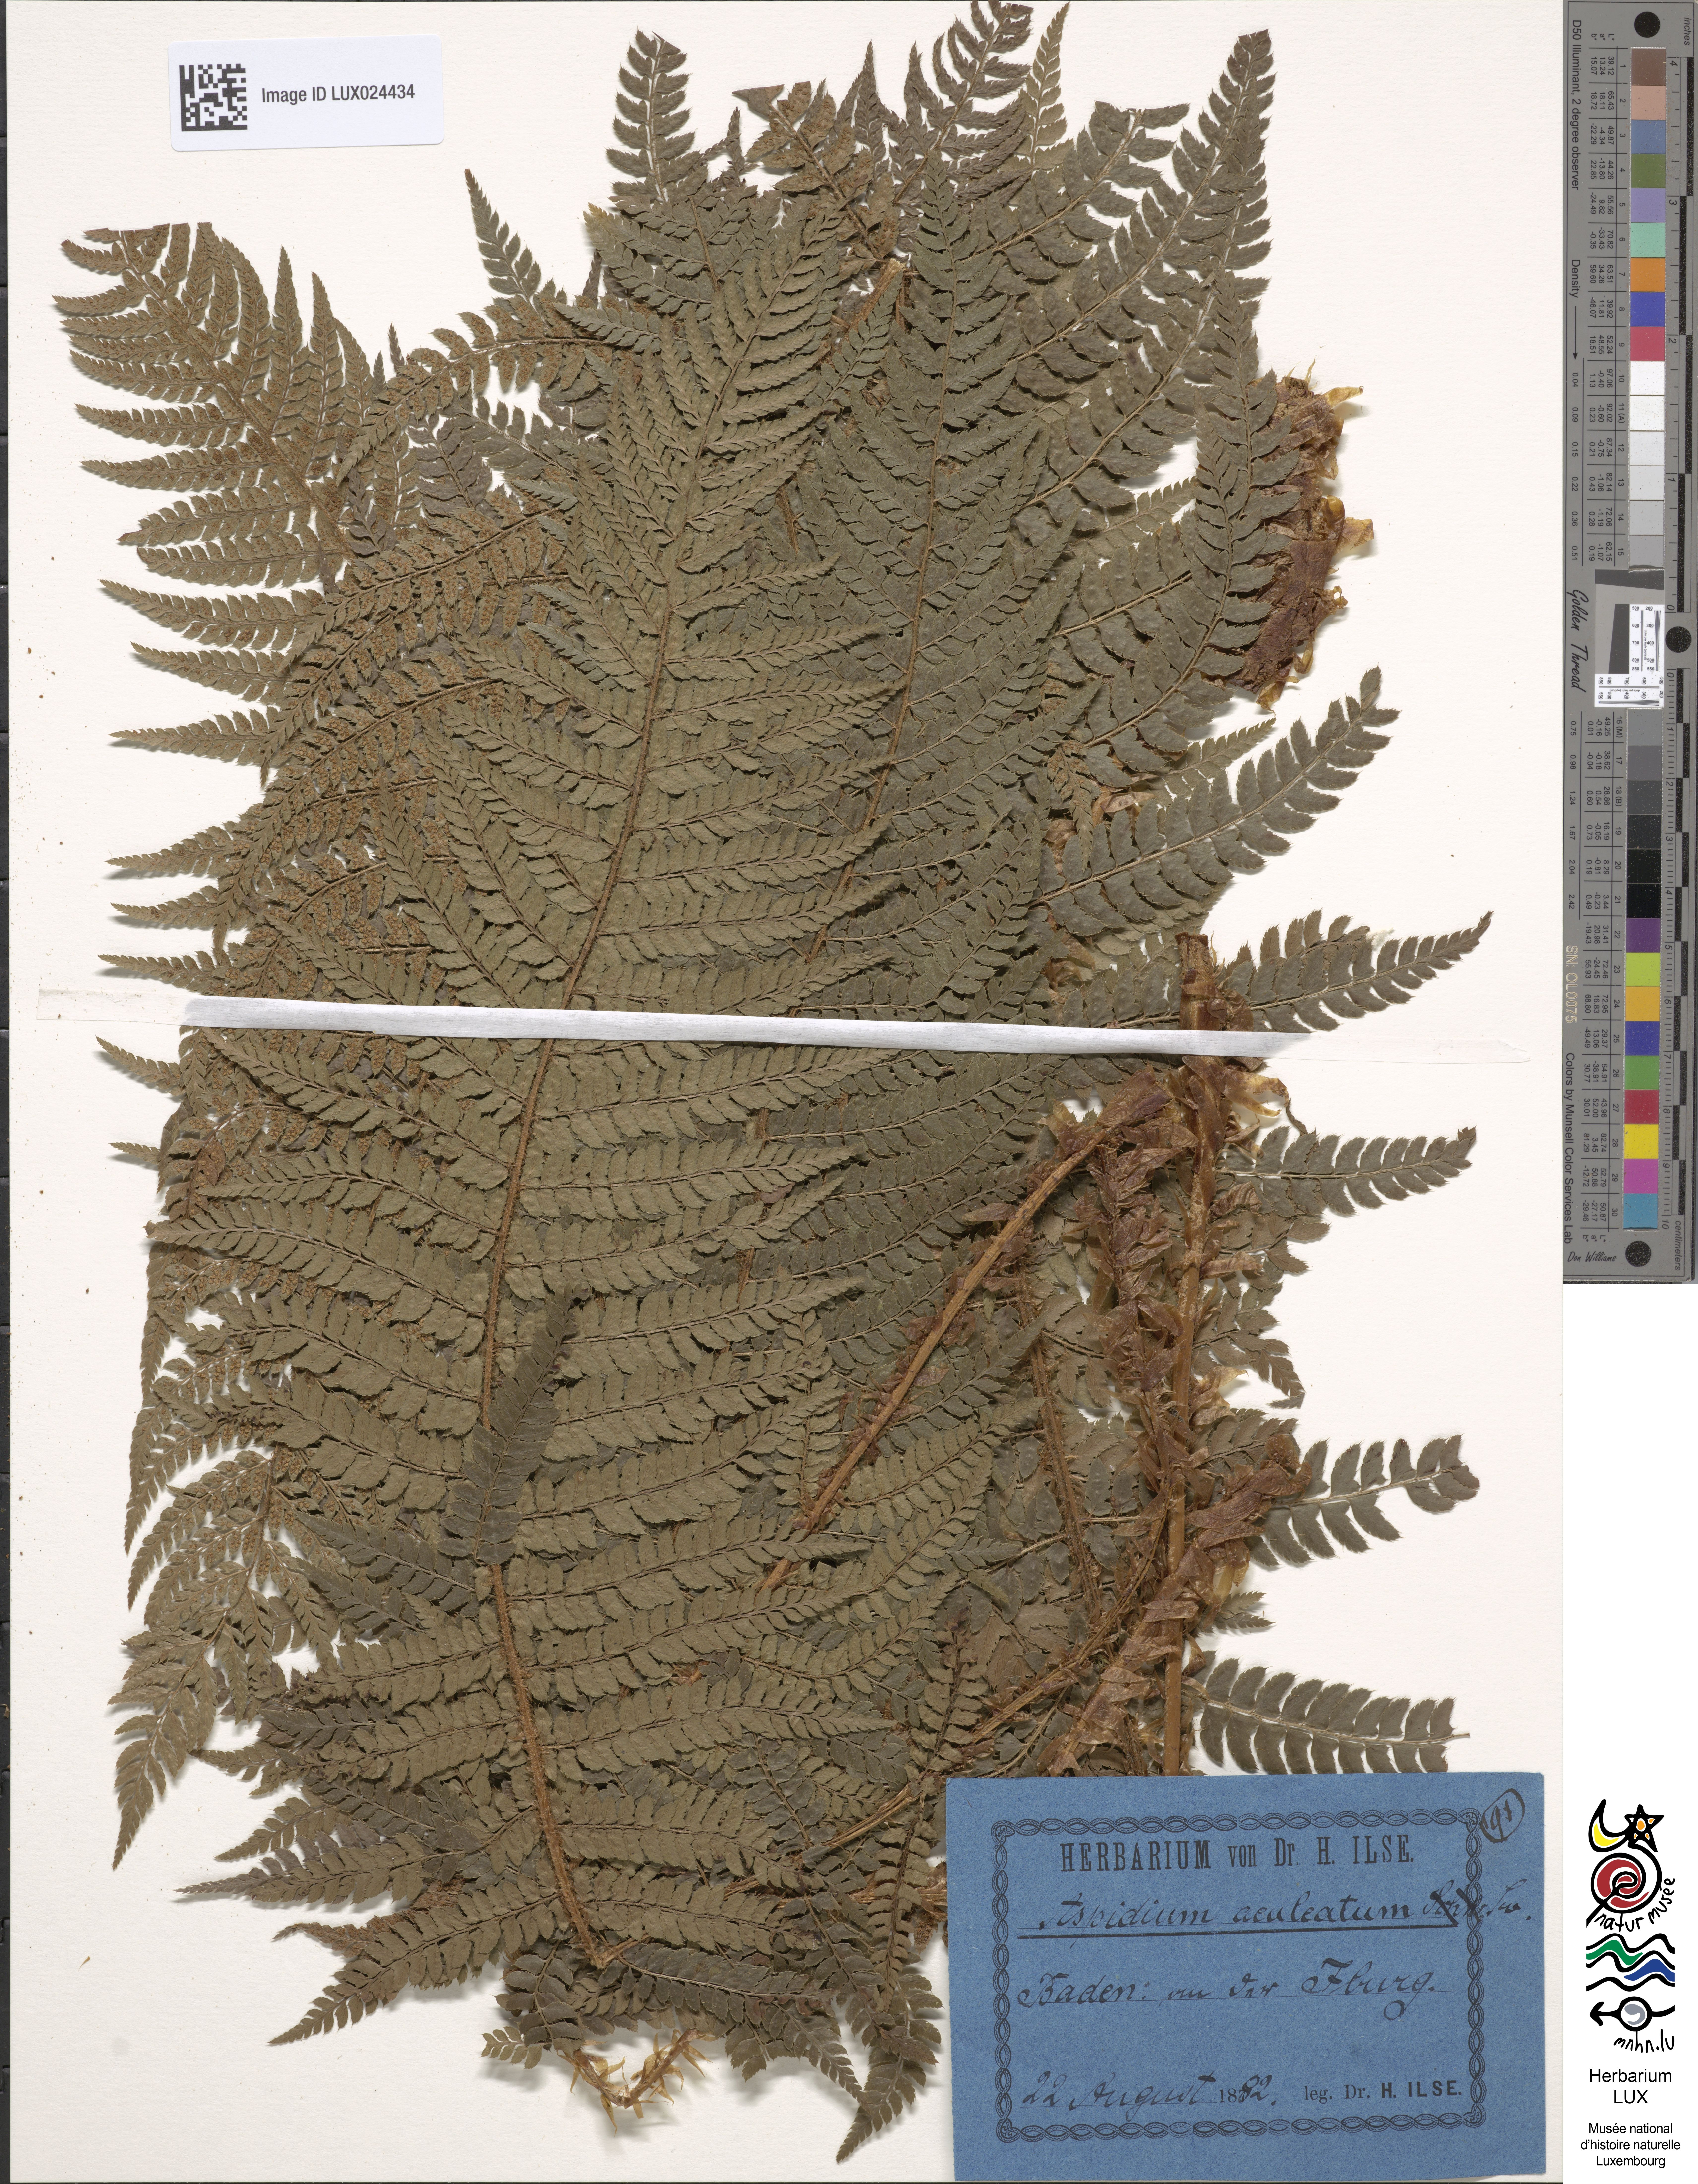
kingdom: Plantae
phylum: Tracheophyta
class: Polypodiopsida
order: Polypodiales
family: Dryopteridaceae
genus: Polystichum
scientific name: Polystichum aculeatum
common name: Hard shield-fern
